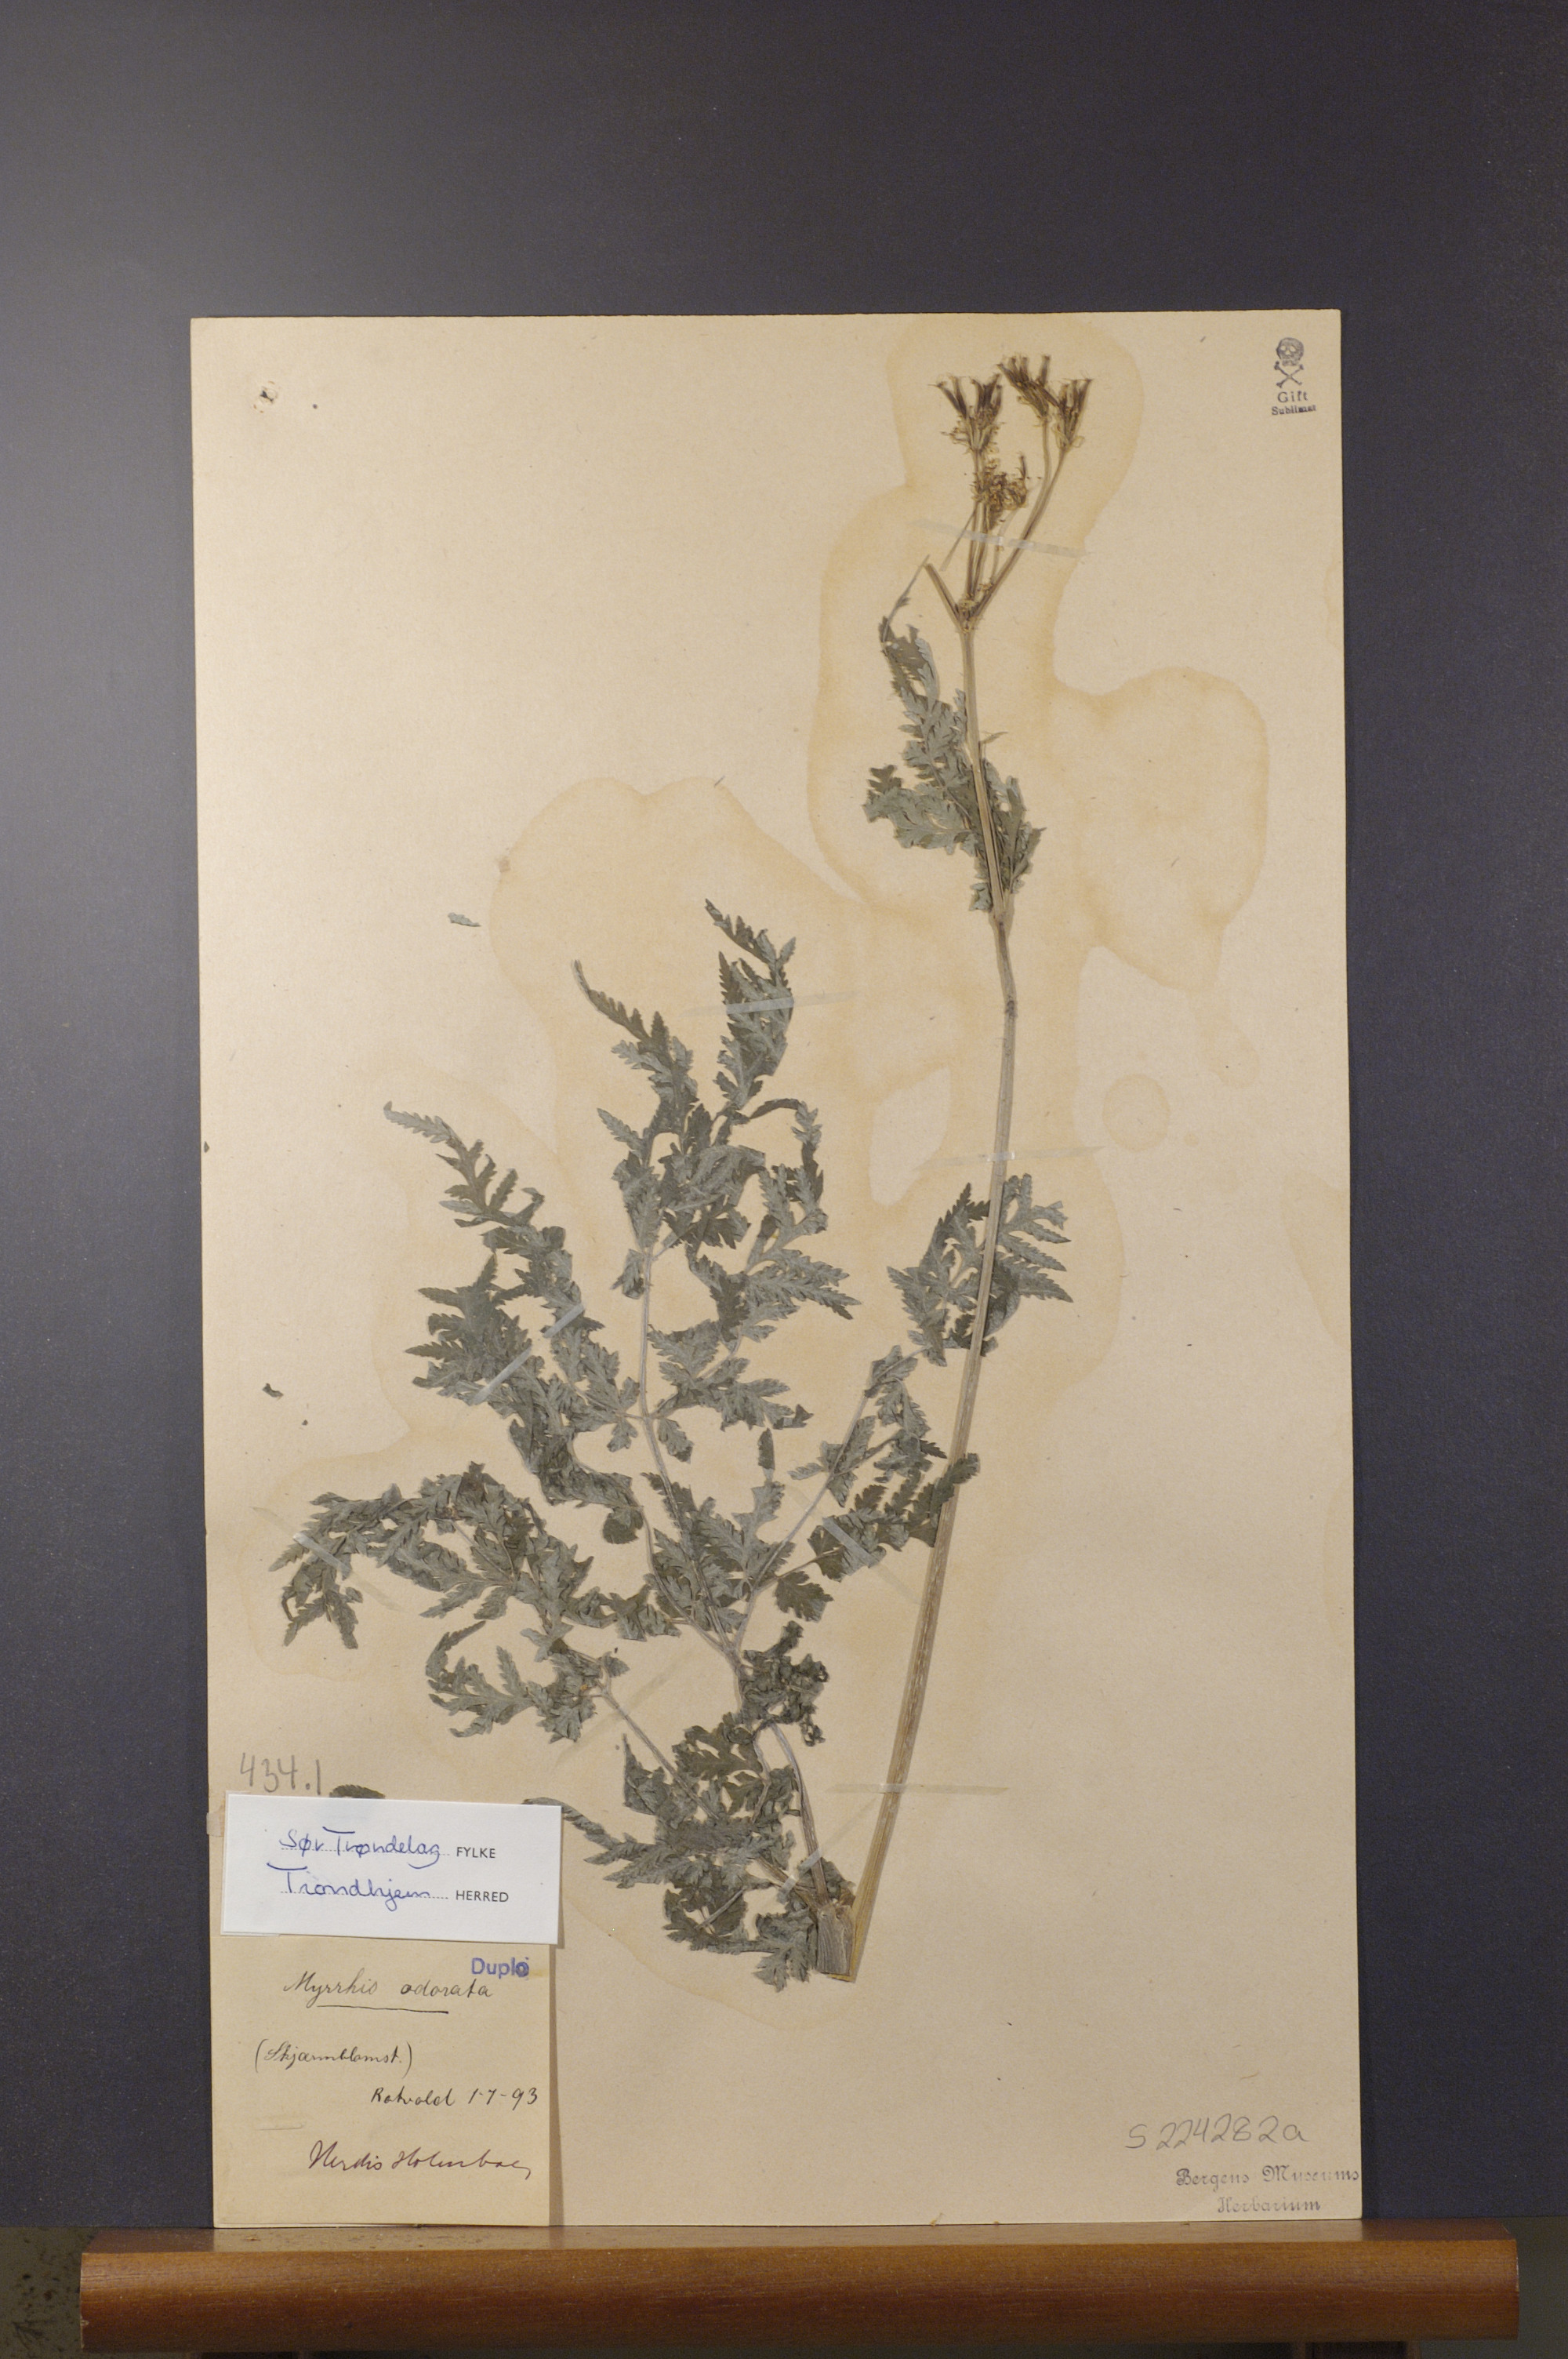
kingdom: Plantae
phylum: Tracheophyta
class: Magnoliopsida
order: Apiales
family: Apiaceae
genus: Myrrhis
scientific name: Myrrhis odorata
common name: Sweet cicely
